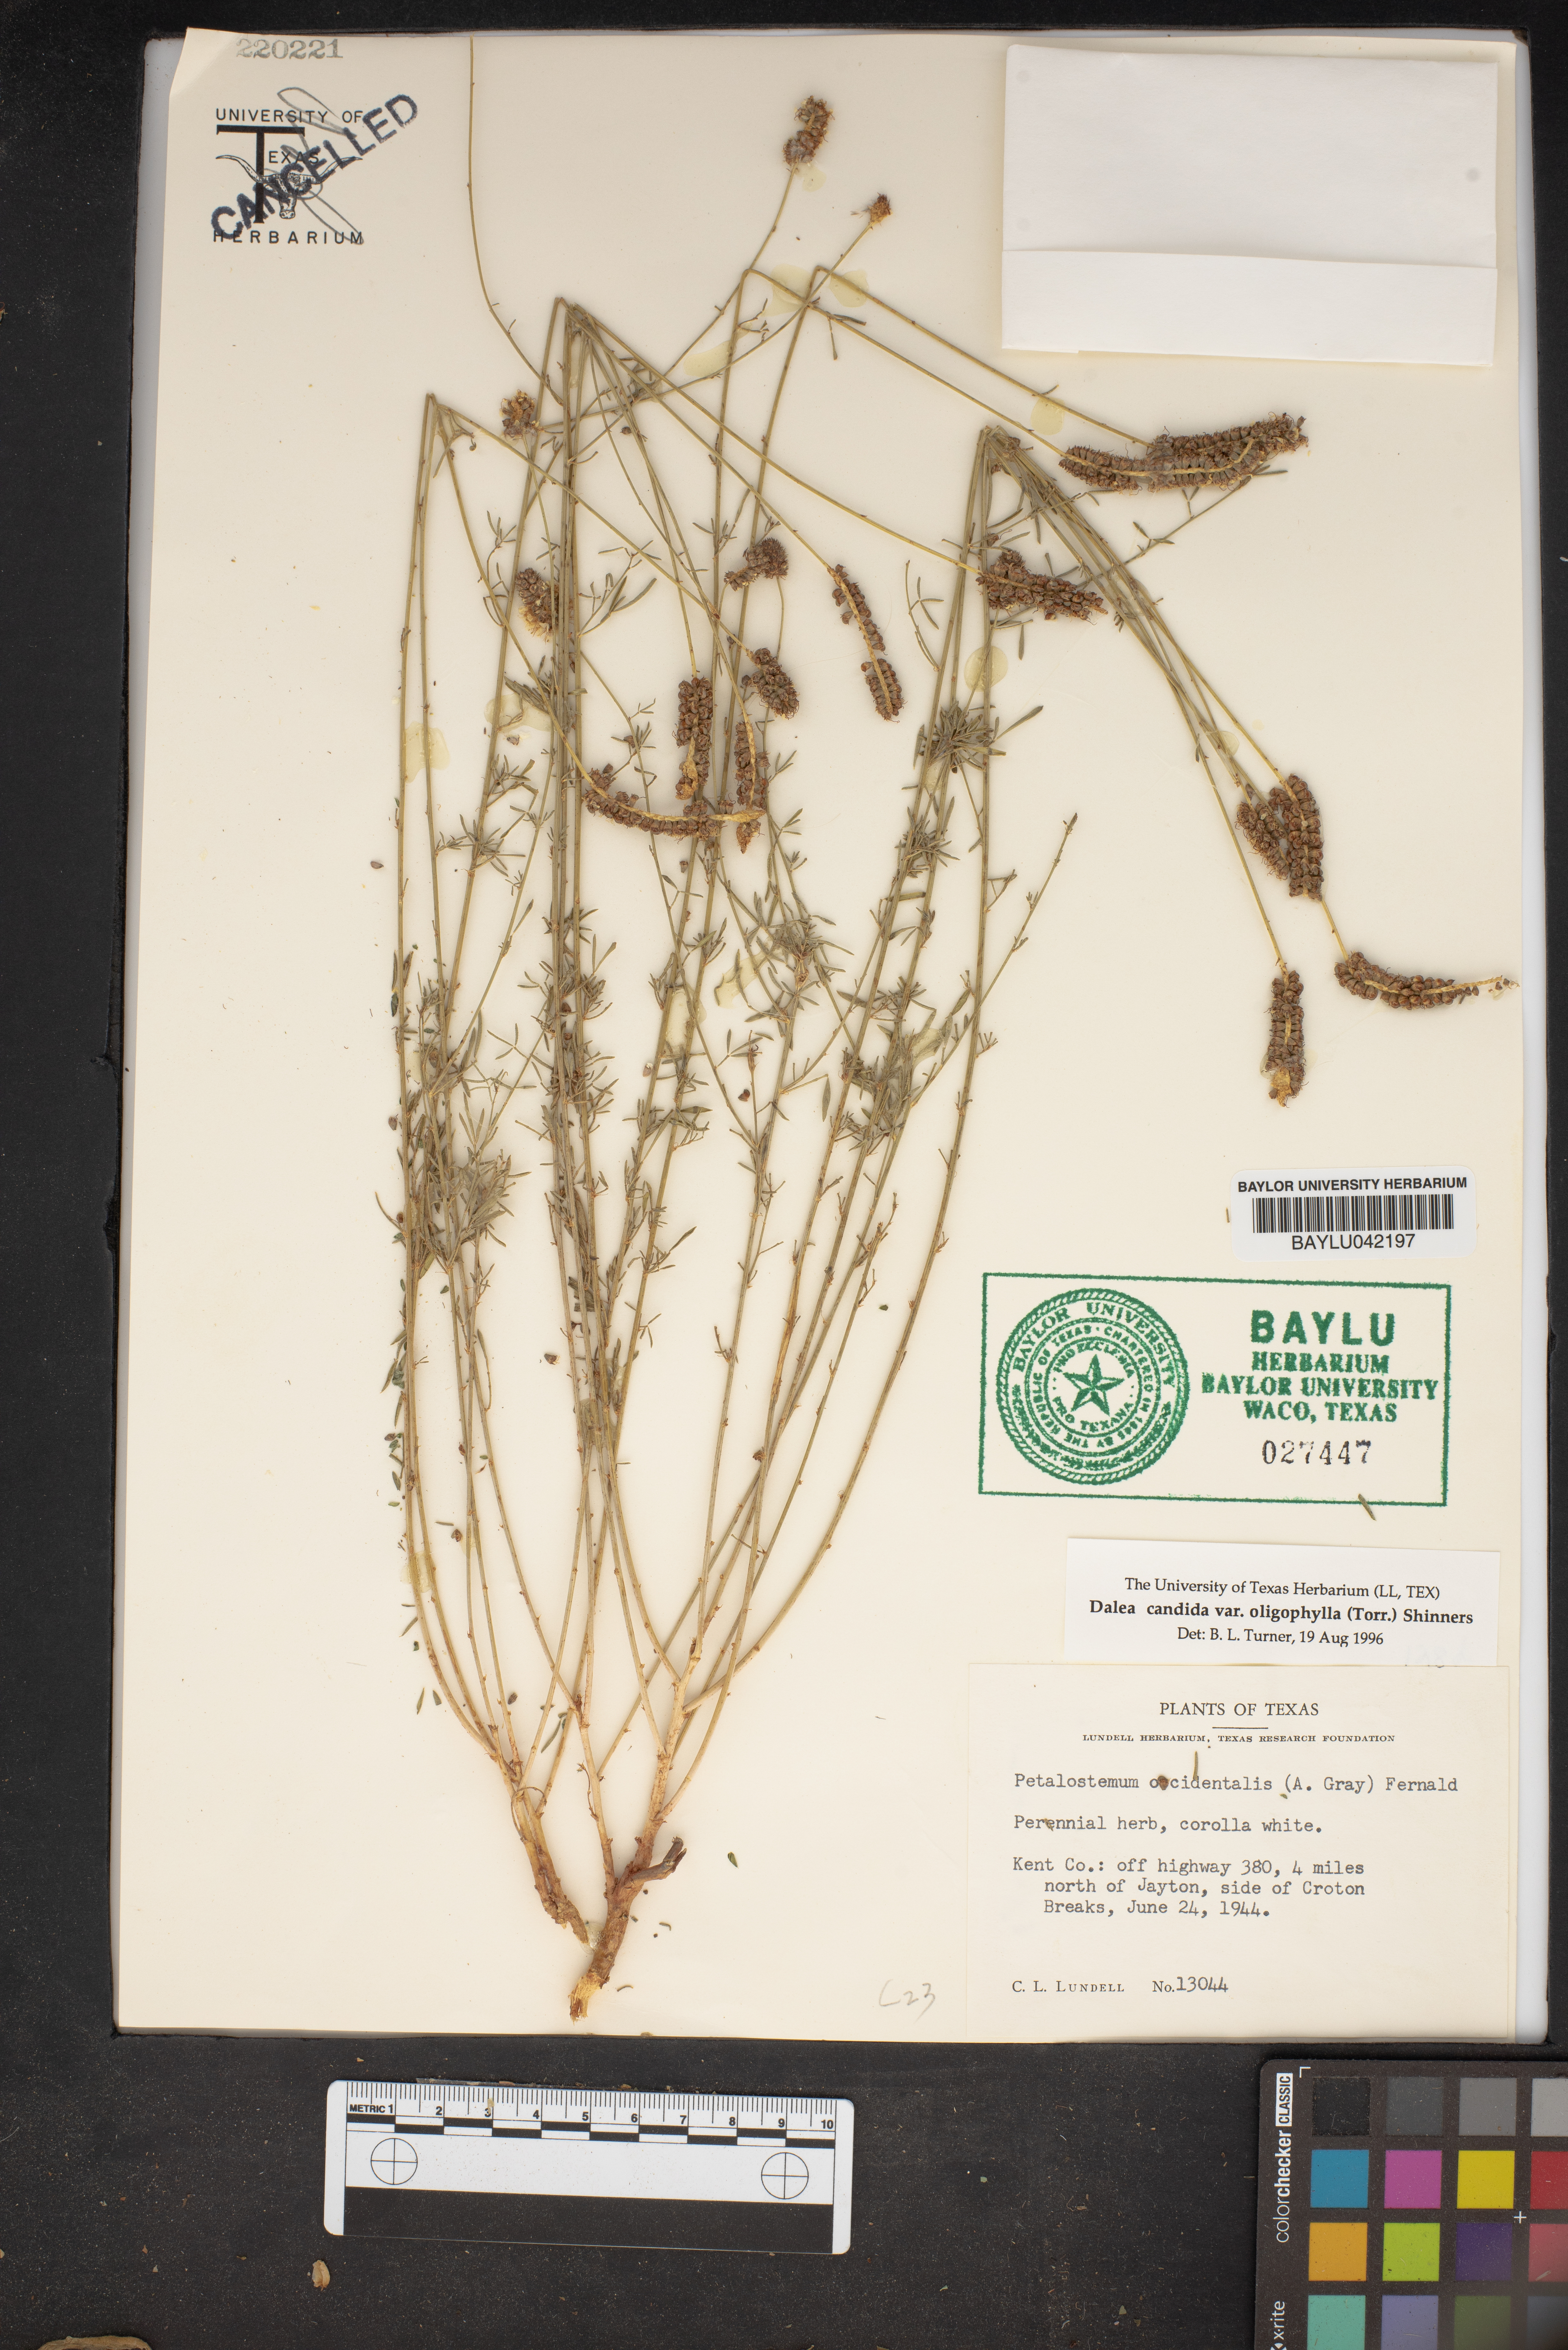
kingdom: Plantae
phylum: Tracheophyta
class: Magnoliopsida
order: Fabales
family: Fabaceae
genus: Dalea
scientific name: Dalea candida
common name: White prairie-clover
